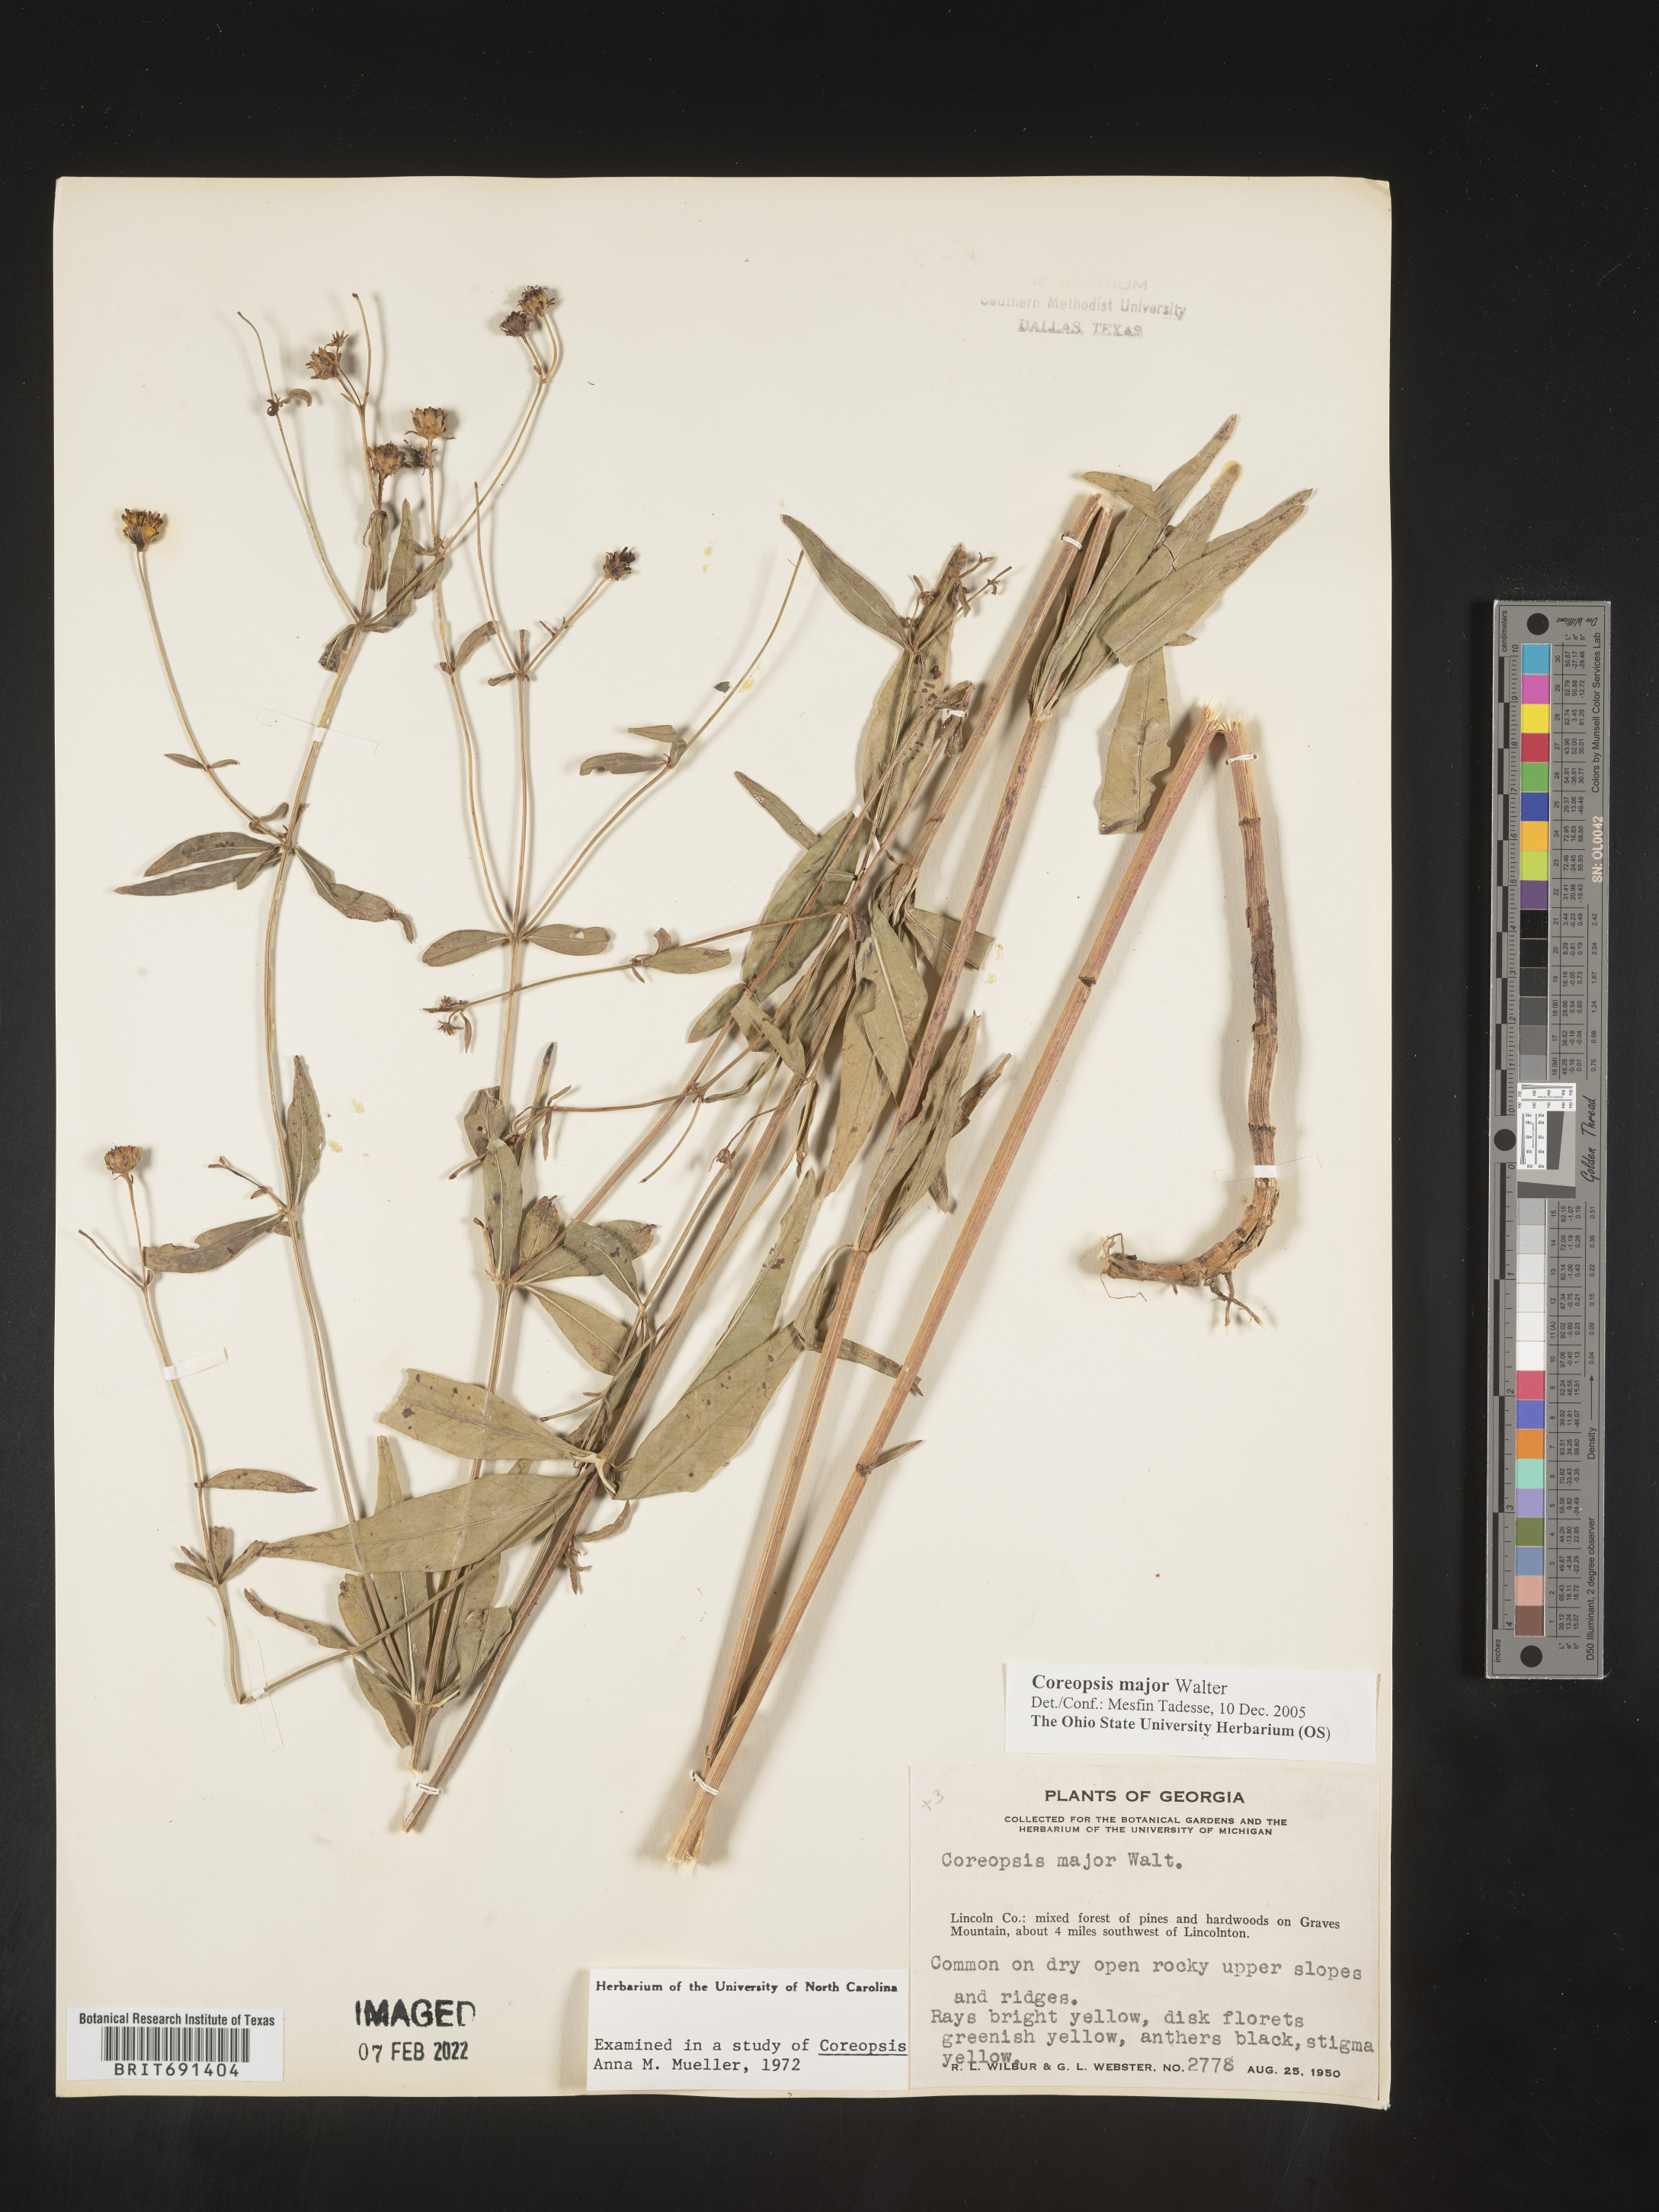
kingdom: Plantae
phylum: Tracheophyta
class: Magnoliopsida
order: Asterales
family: Asteraceae
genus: Coreopsis
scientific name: Coreopsis major
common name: Forest tickseed
